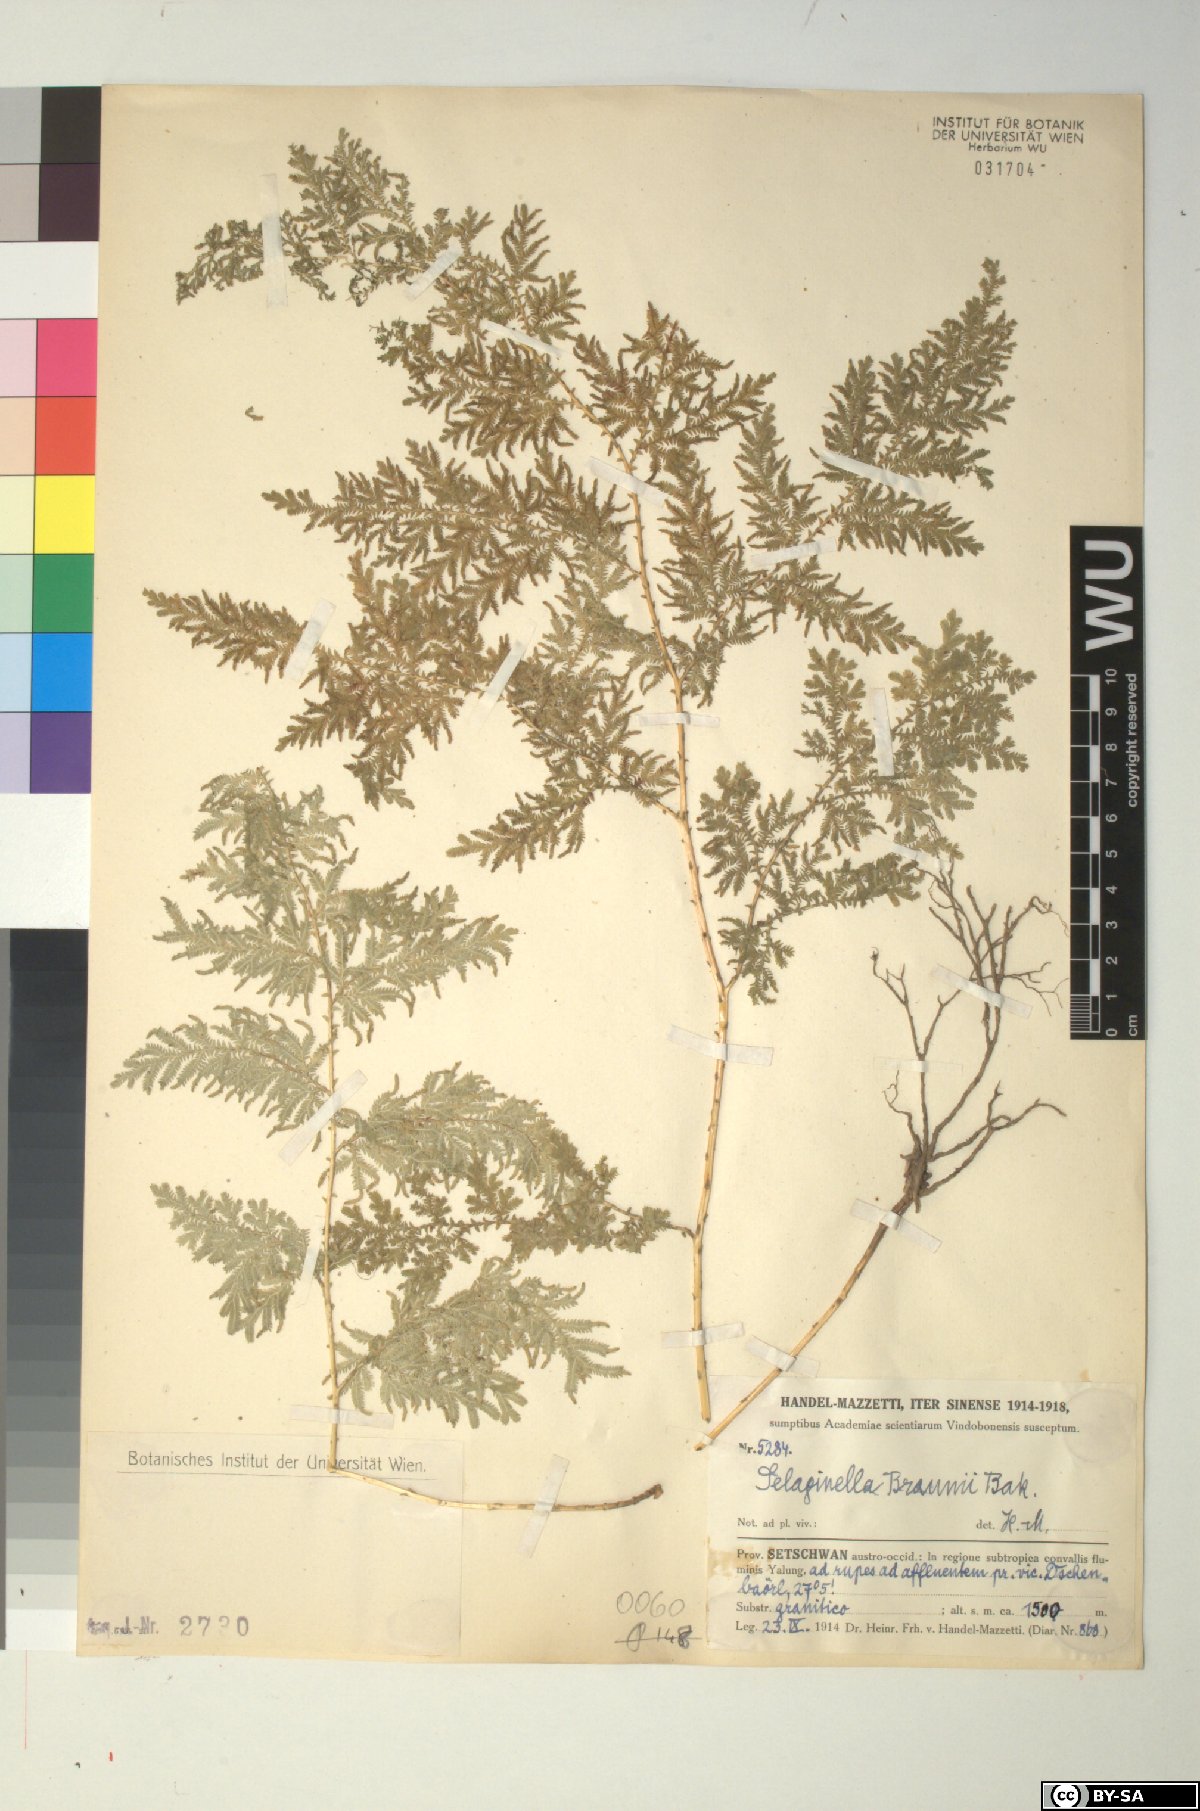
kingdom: Plantae
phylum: Tracheophyta
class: Lycopodiopsida
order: Selaginellales
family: Selaginellaceae
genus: Selaginella
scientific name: Selaginella braunii
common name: Braun's spikemoss
